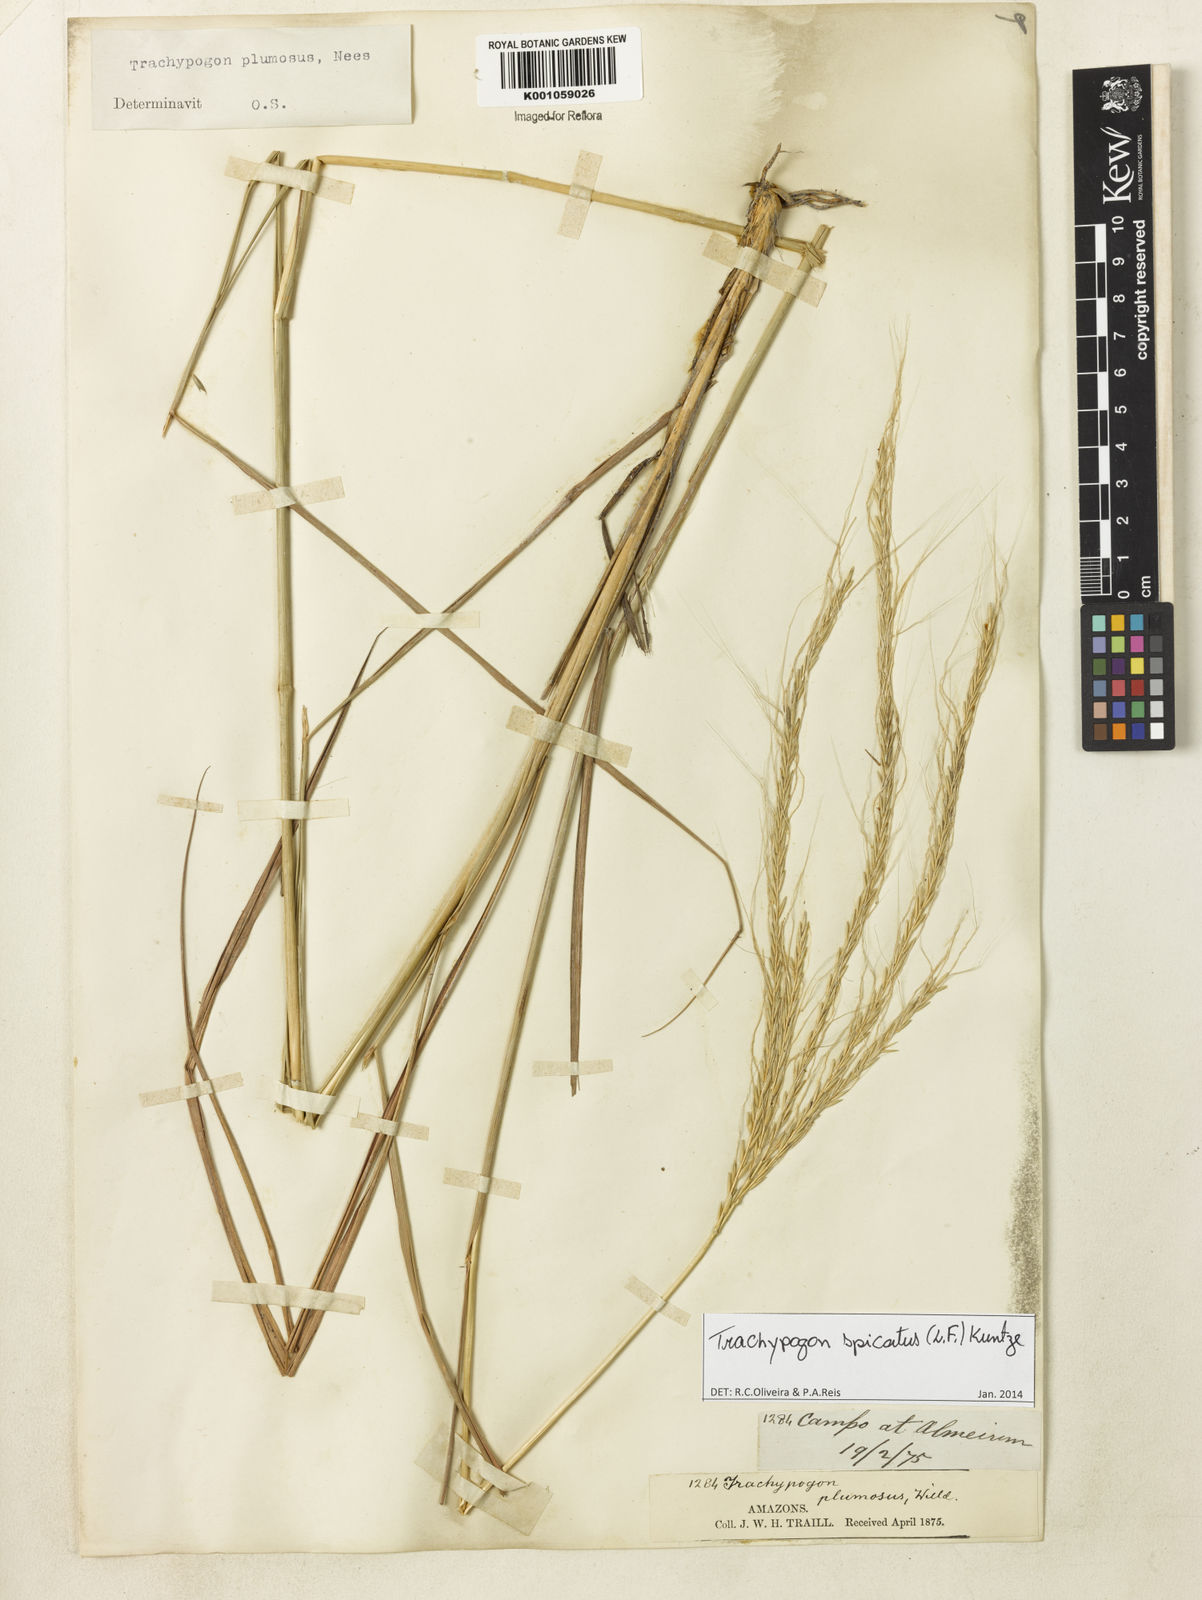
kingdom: Plantae
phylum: Tracheophyta
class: Liliopsida
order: Poales
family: Poaceae
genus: Trachypogon
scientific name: Trachypogon spicatus
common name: Crinkle-awn
